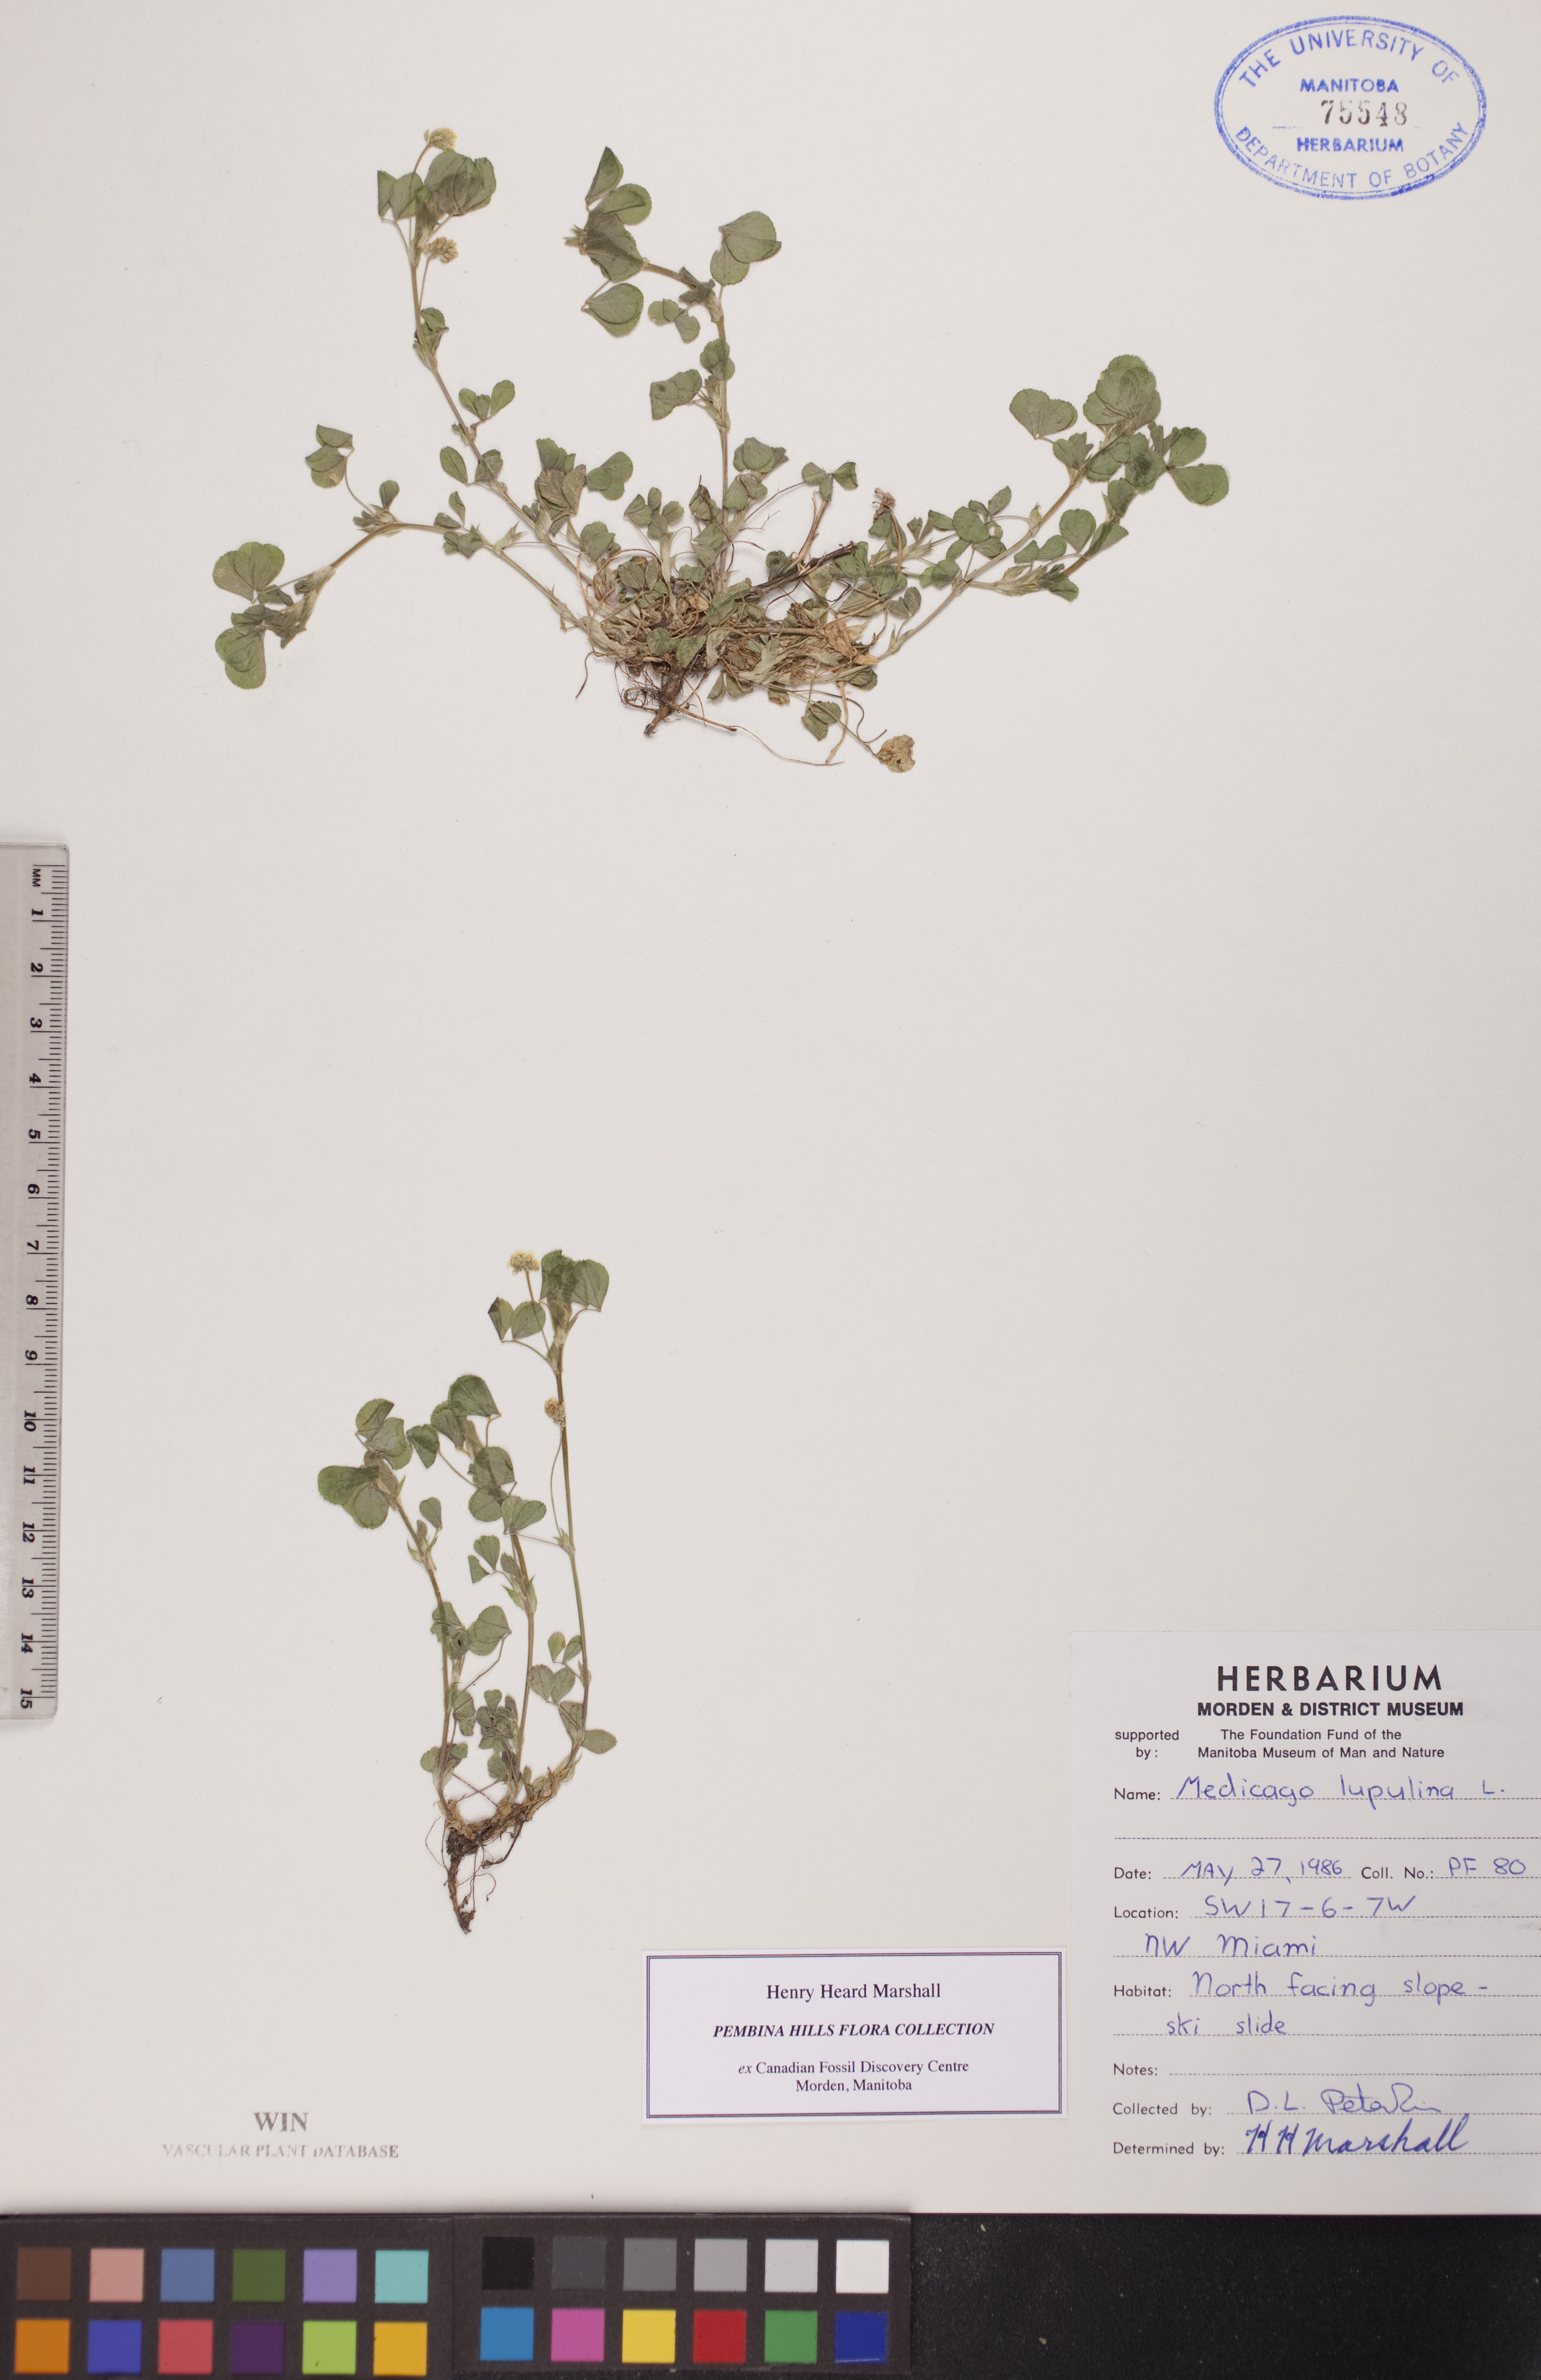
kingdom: Plantae
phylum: Tracheophyta
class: Magnoliopsida
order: Fabales
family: Fabaceae
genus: Medicago
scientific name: Medicago lupulina
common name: Black medick
